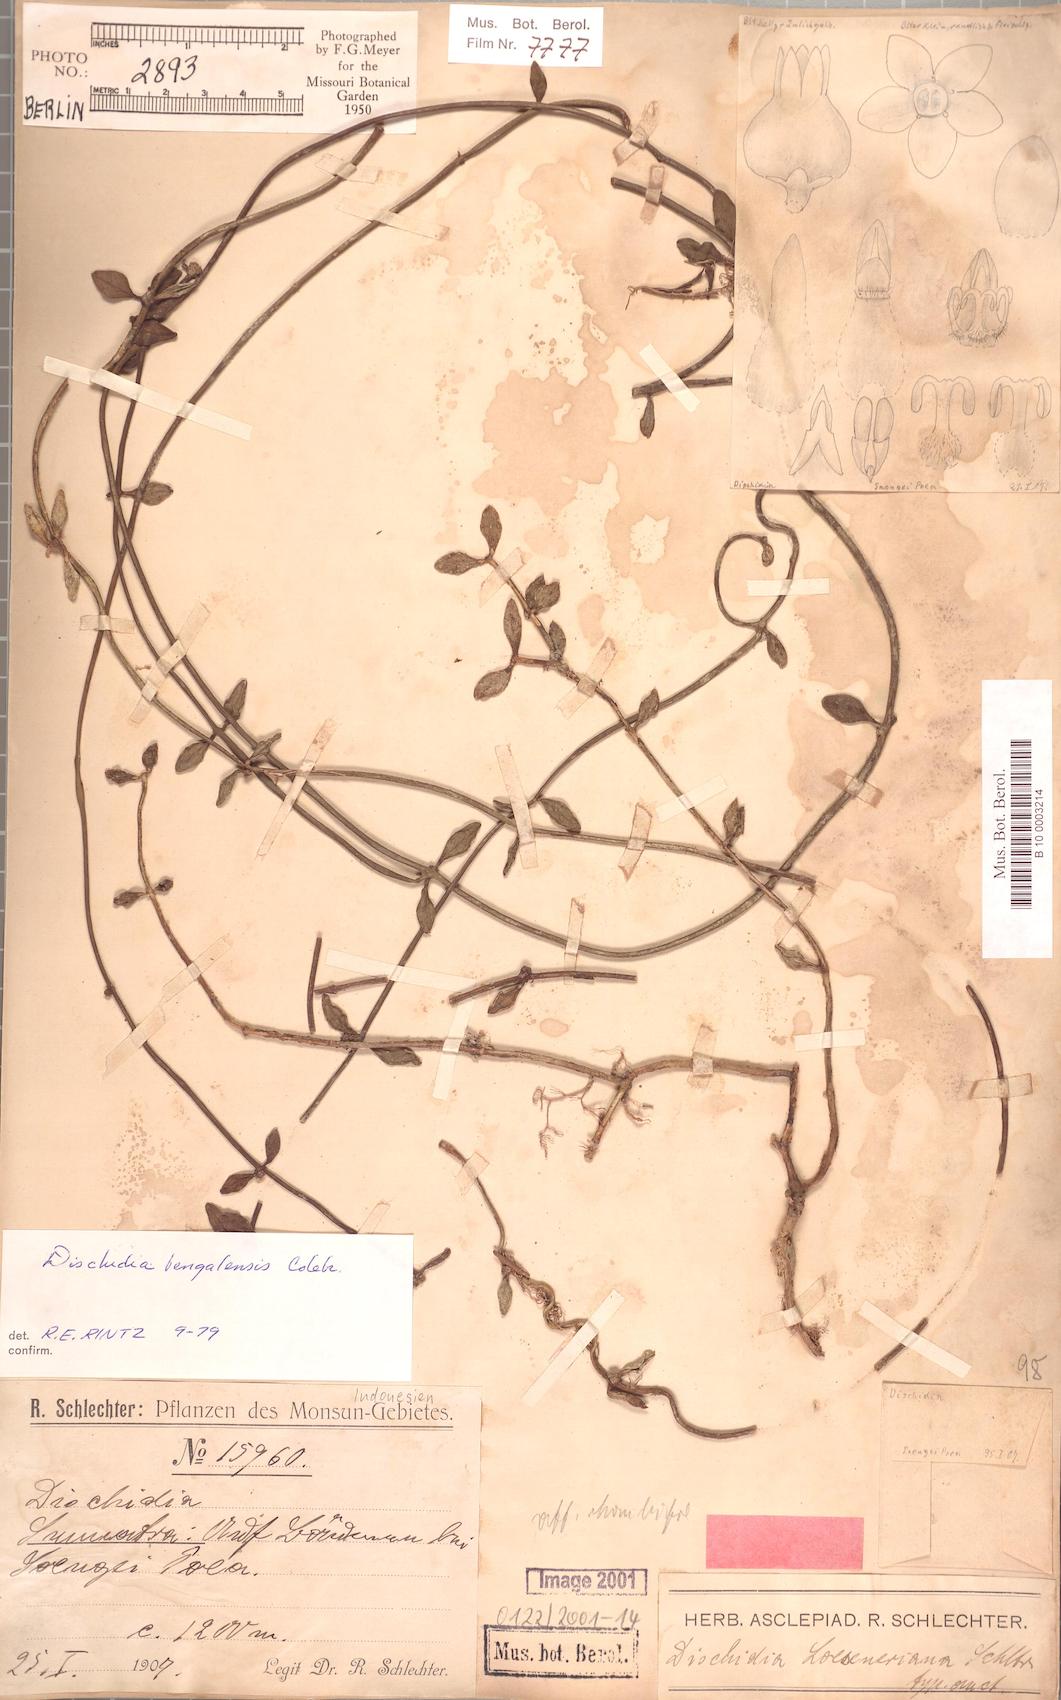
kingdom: Plantae
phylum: Tracheophyta
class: Magnoliopsida
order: Gentianales
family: Apocynaceae
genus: Dischidia
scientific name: Dischidia bengalensis
